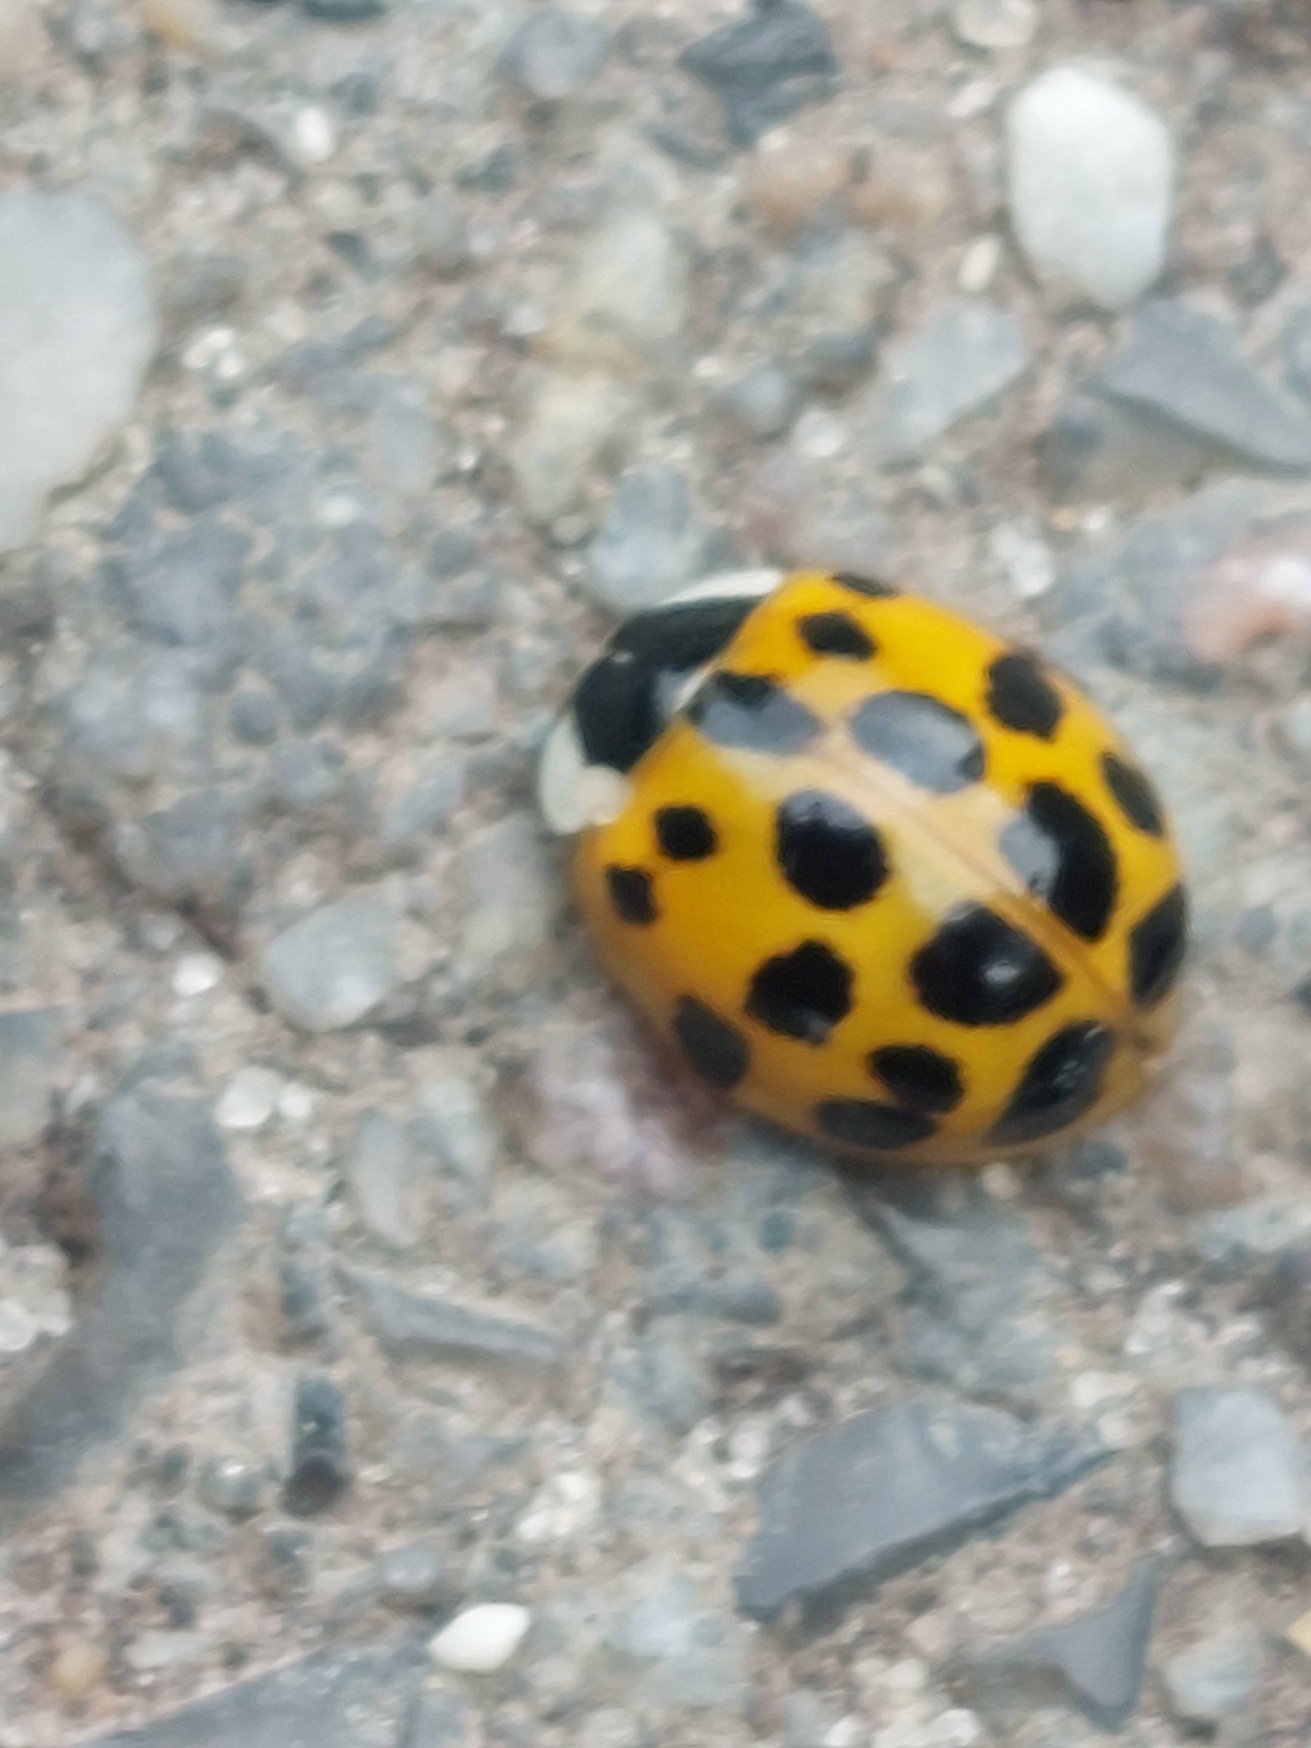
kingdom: Animalia
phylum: Arthropoda
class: Insecta
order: Coleoptera
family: Coccinellidae
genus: Harmonia
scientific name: Harmonia axyridis
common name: Harlekinmariehøne
